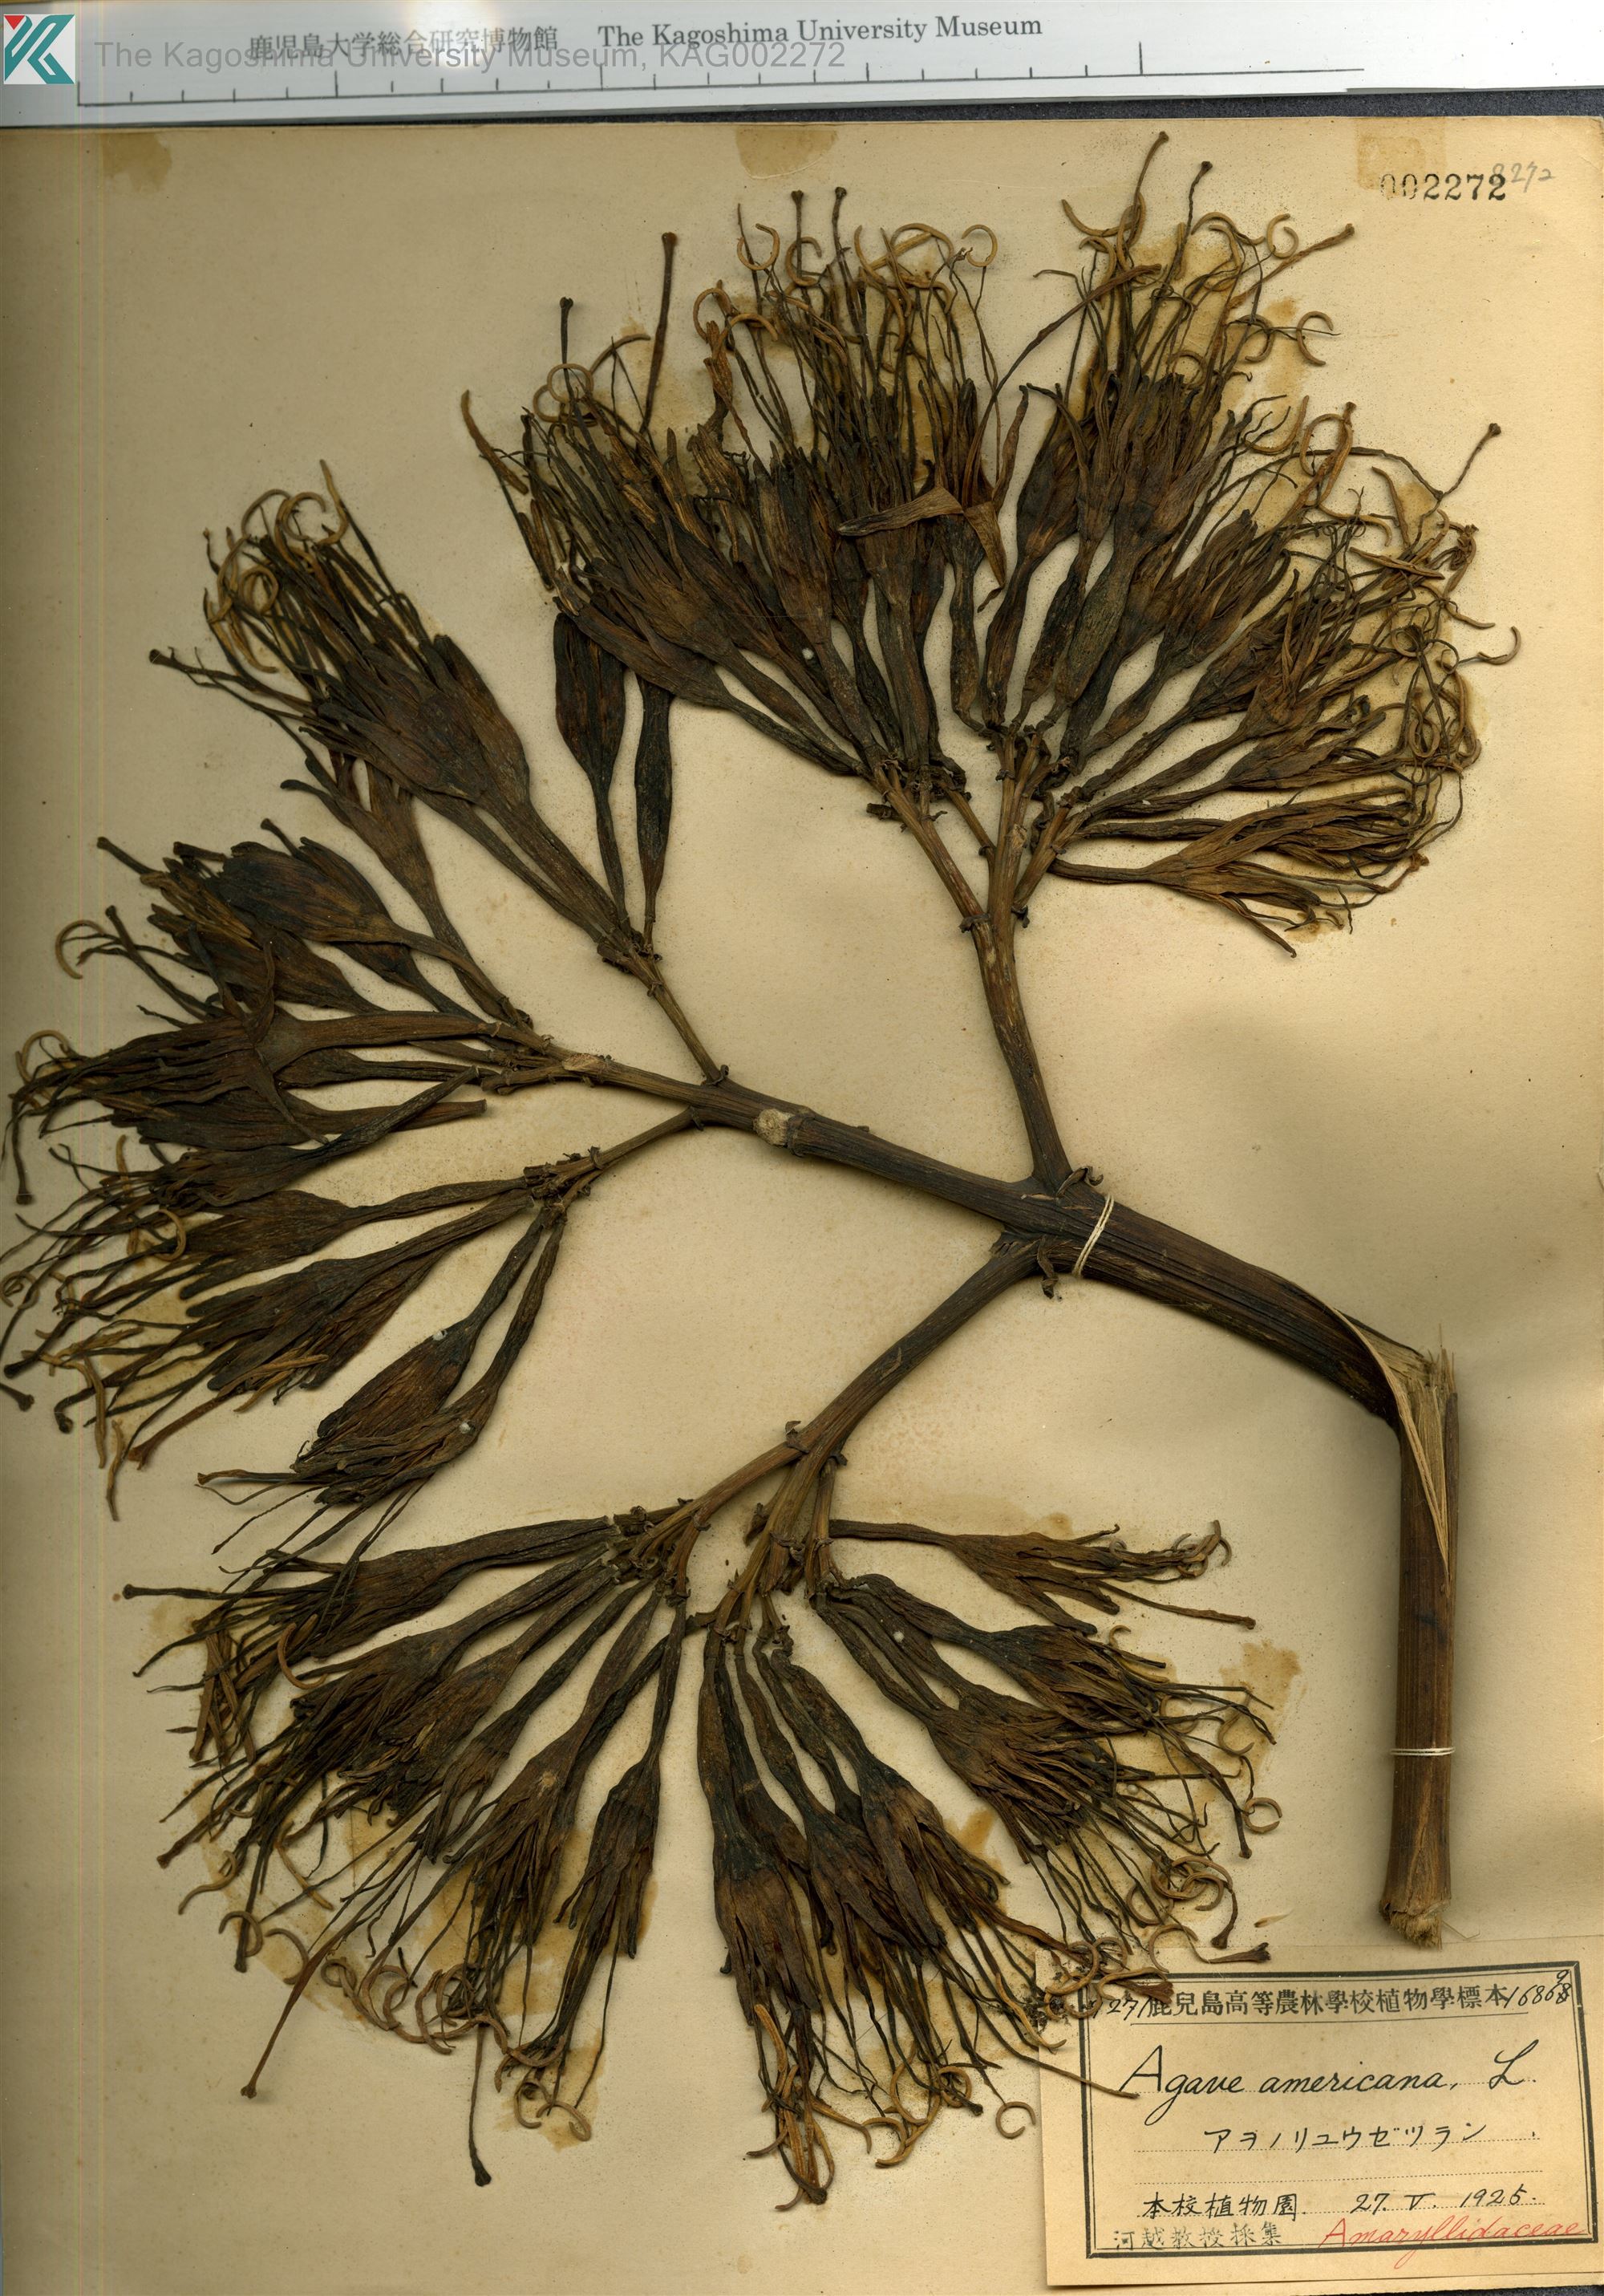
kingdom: Plantae
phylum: Tracheophyta
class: Liliopsida
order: Asparagales
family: Asparagaceae
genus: Agave
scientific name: Agave americana
